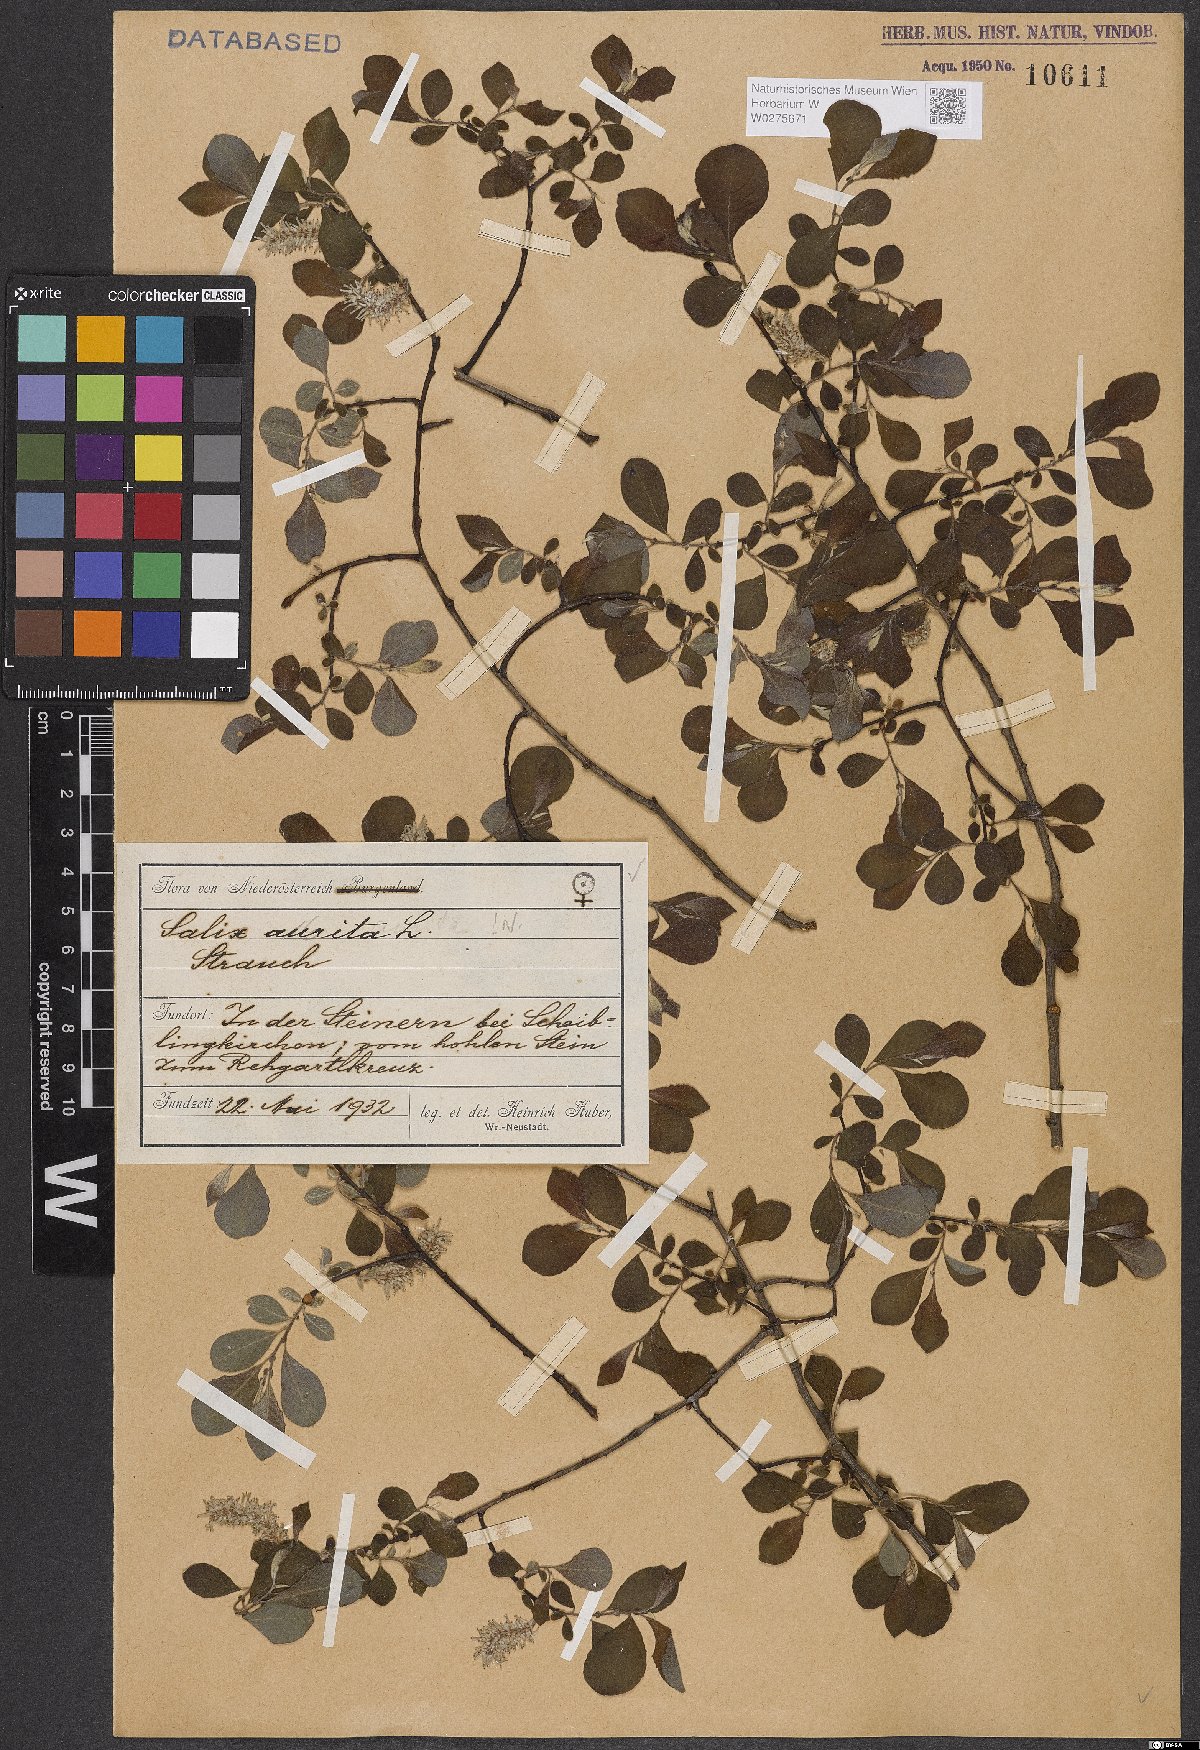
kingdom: Plantae
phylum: Tracheophyta
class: Magnoliopsida
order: Malpighiales
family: Salicaceae
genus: Salix
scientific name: Salix aurita
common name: Eared willow
